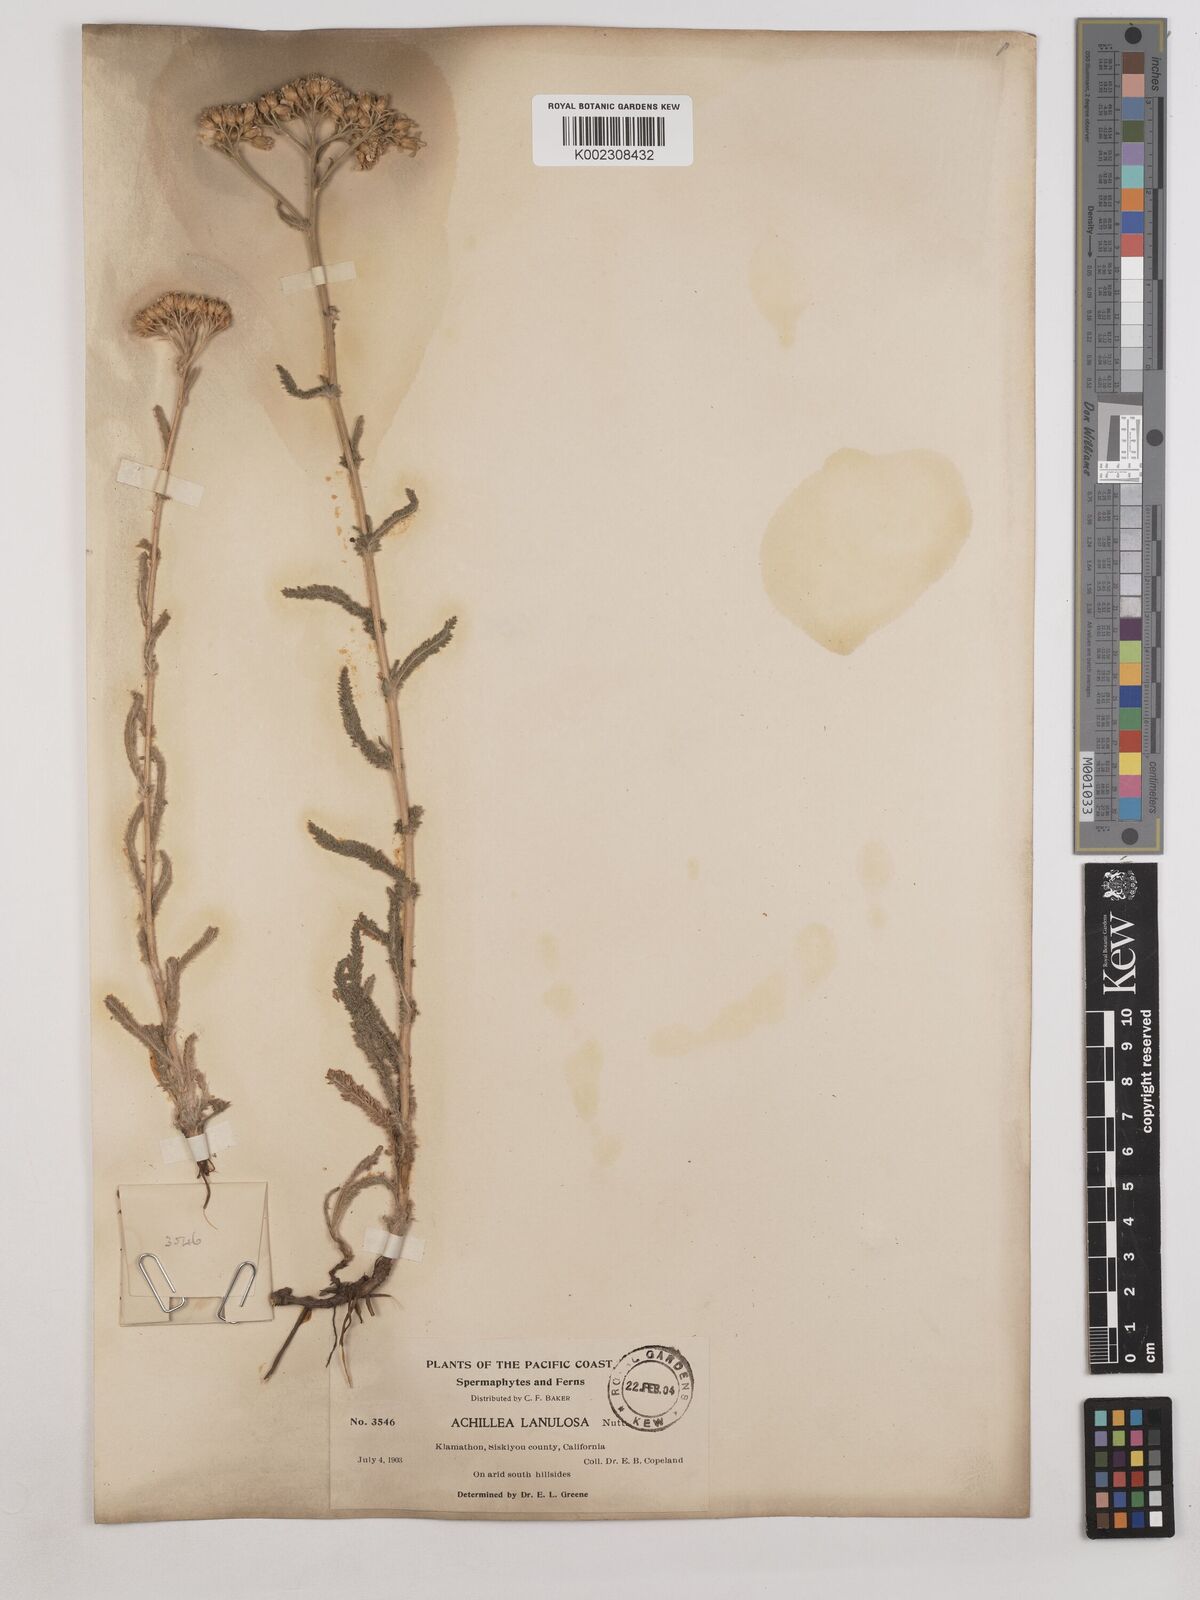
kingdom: Plantae
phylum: Tracheophyta
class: Magnoliopsida
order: Asterales
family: Asteraceae
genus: Achillea
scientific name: Achillea millefolium
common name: Yarrow
